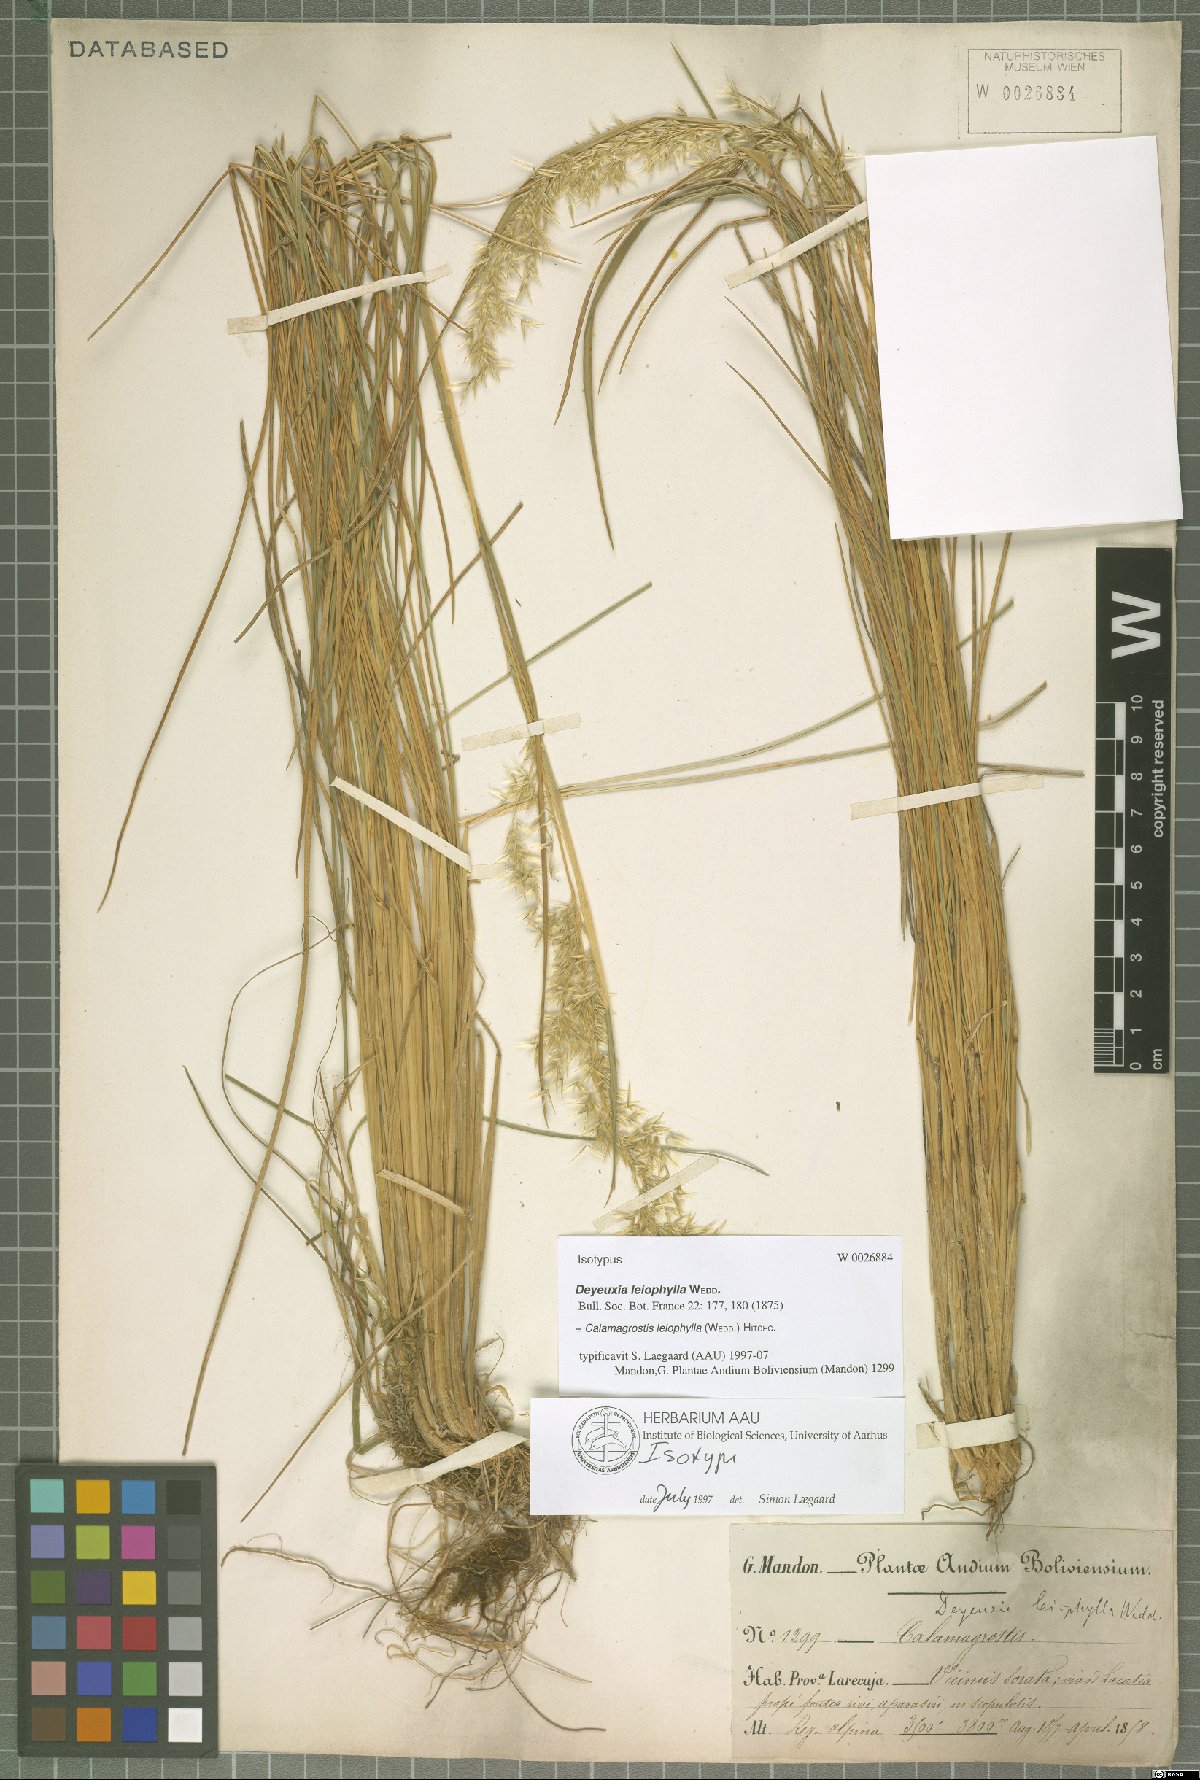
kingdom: Plantae
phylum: Tracheophyta
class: Liliopsida
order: Poales
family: Poaceae
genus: Cinnagrostis
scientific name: Cinnagrostis leiophylla
